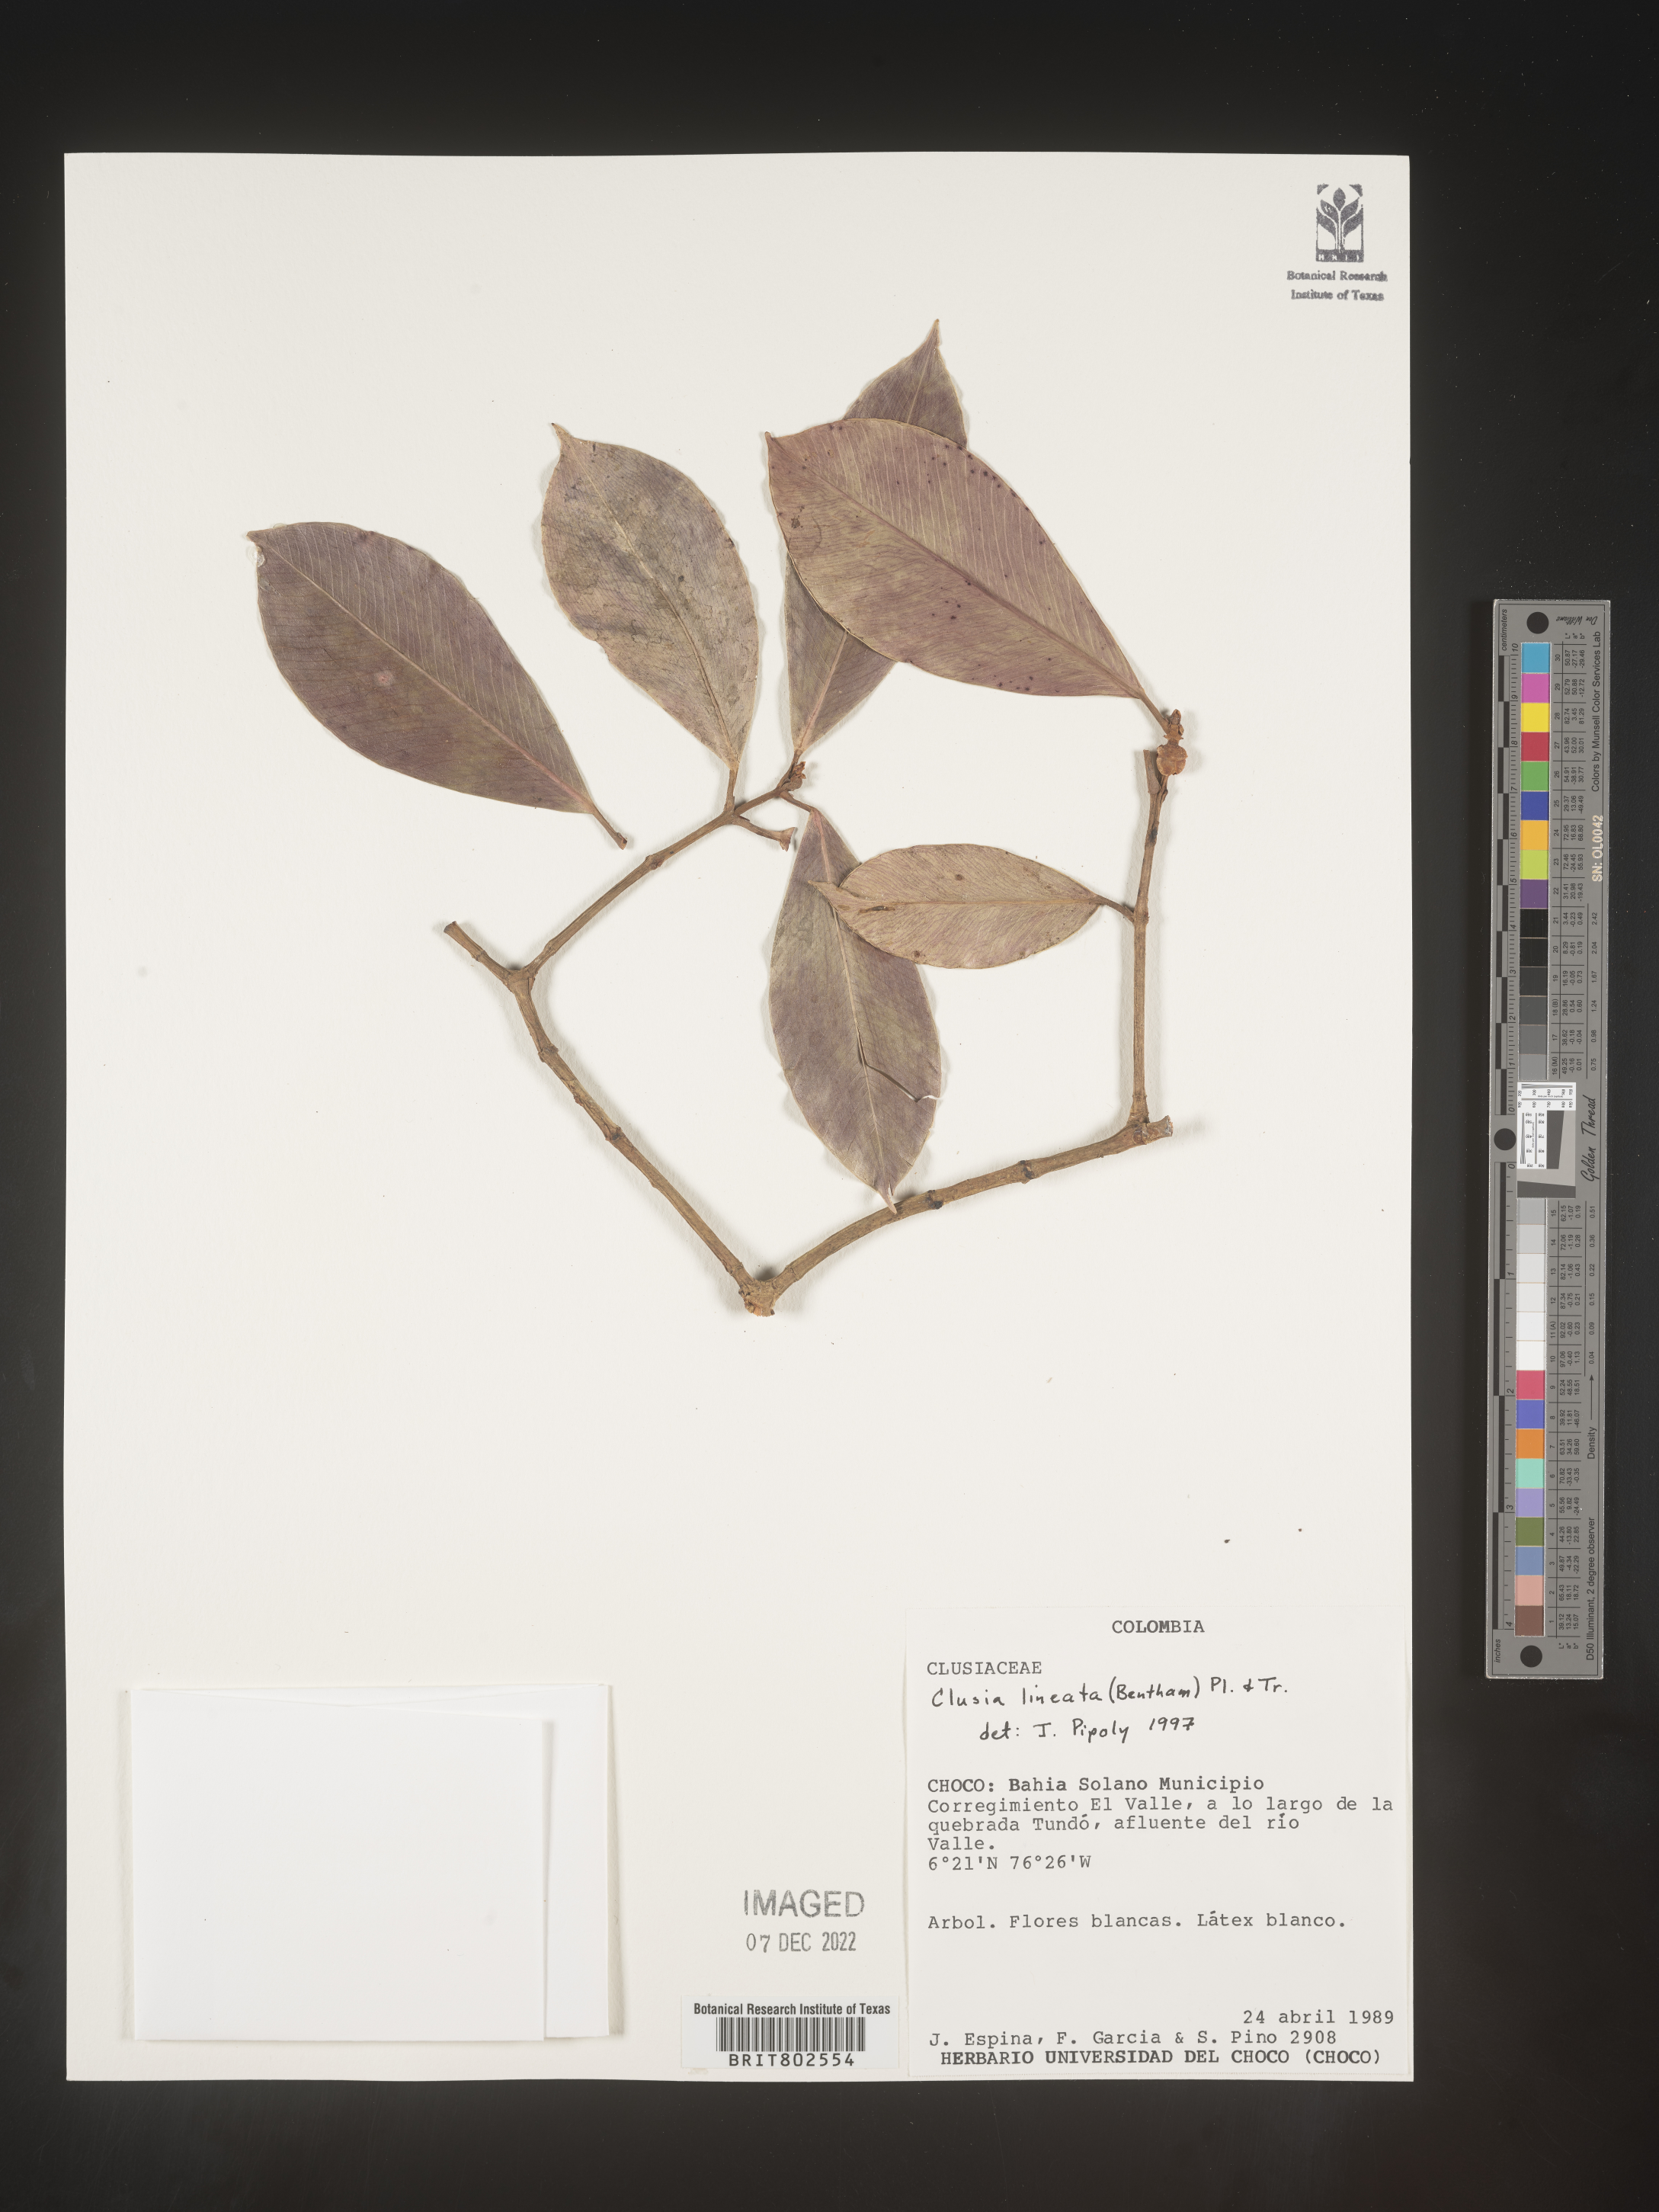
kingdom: Plantae
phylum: Tracheophyta
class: Magnoliopsida
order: Malpighiales
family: Clusiaceae
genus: Clusia
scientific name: Clusia loranthacea
